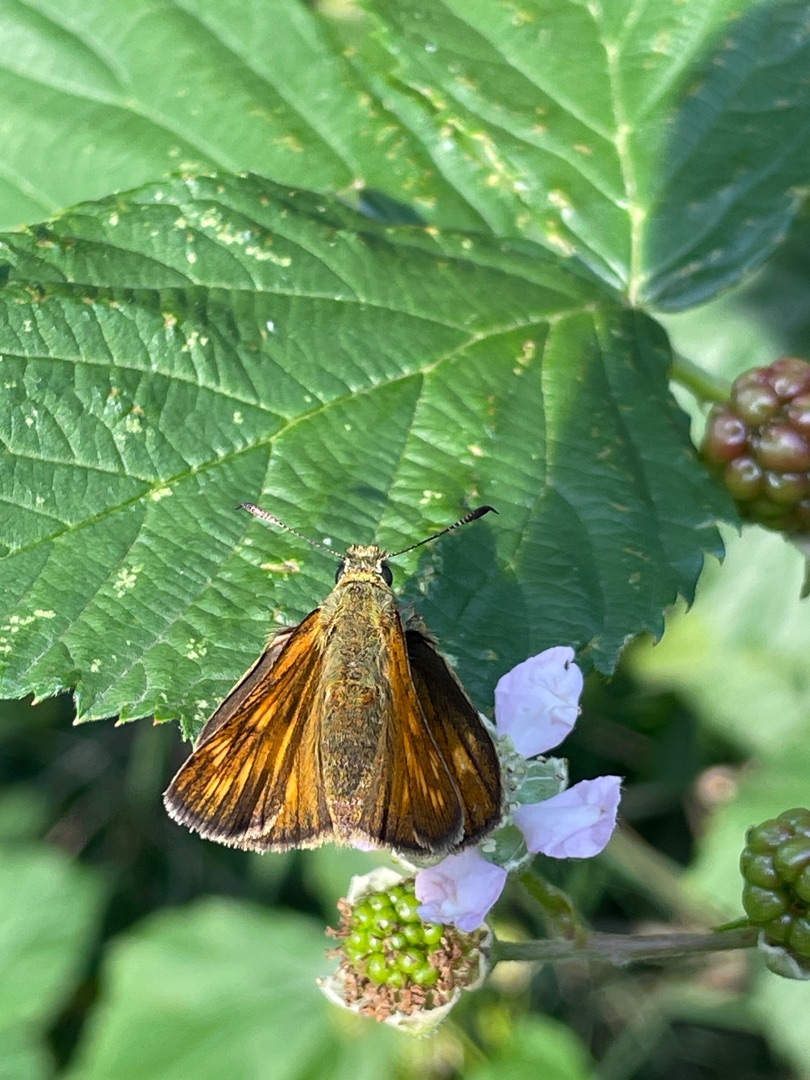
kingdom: Animalia
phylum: Arthropoda
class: Insecta
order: Lepidoptera
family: Hesperiidae
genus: Ochlodes
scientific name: Ochlodes venata
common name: Stor bredpande
